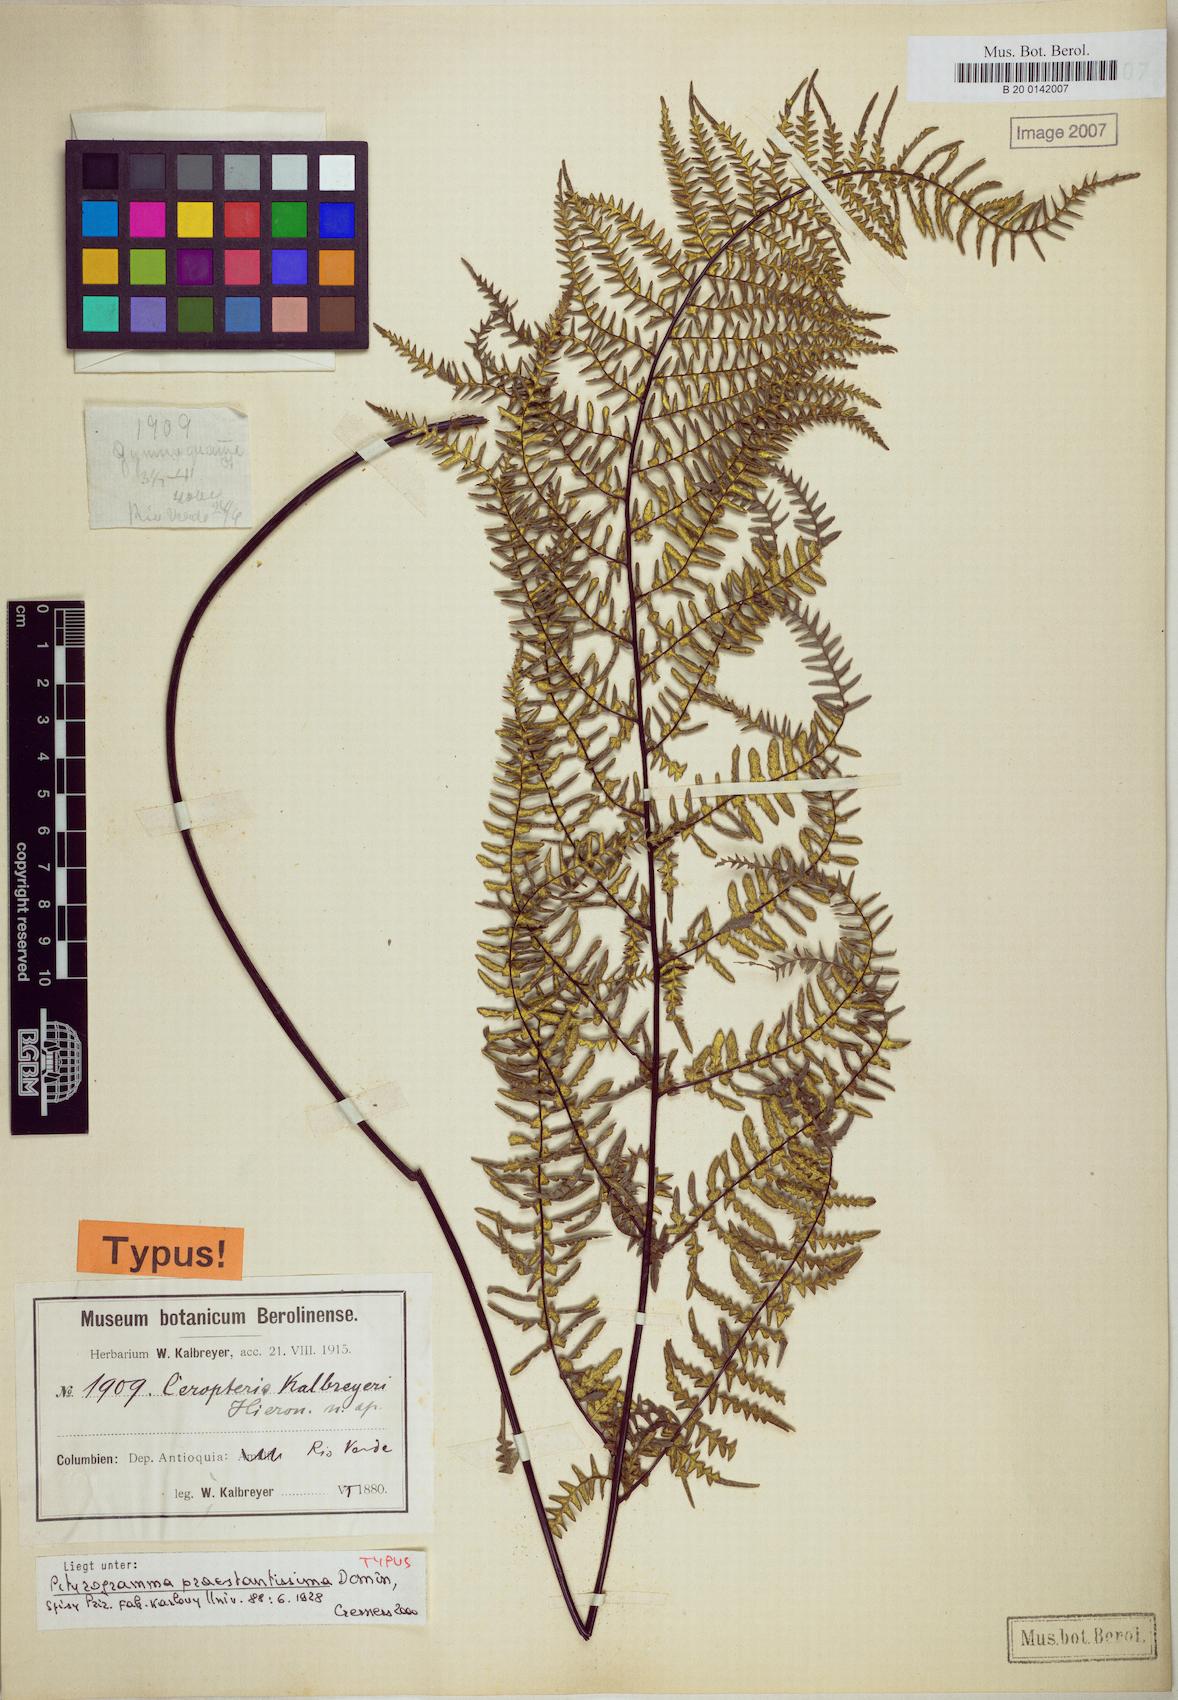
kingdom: Plantae
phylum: Tracheophyta
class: Polypodiopsida
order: Polypodiales
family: Pteridaceae
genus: Pityrogramma
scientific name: Pityrogramma ebenea
